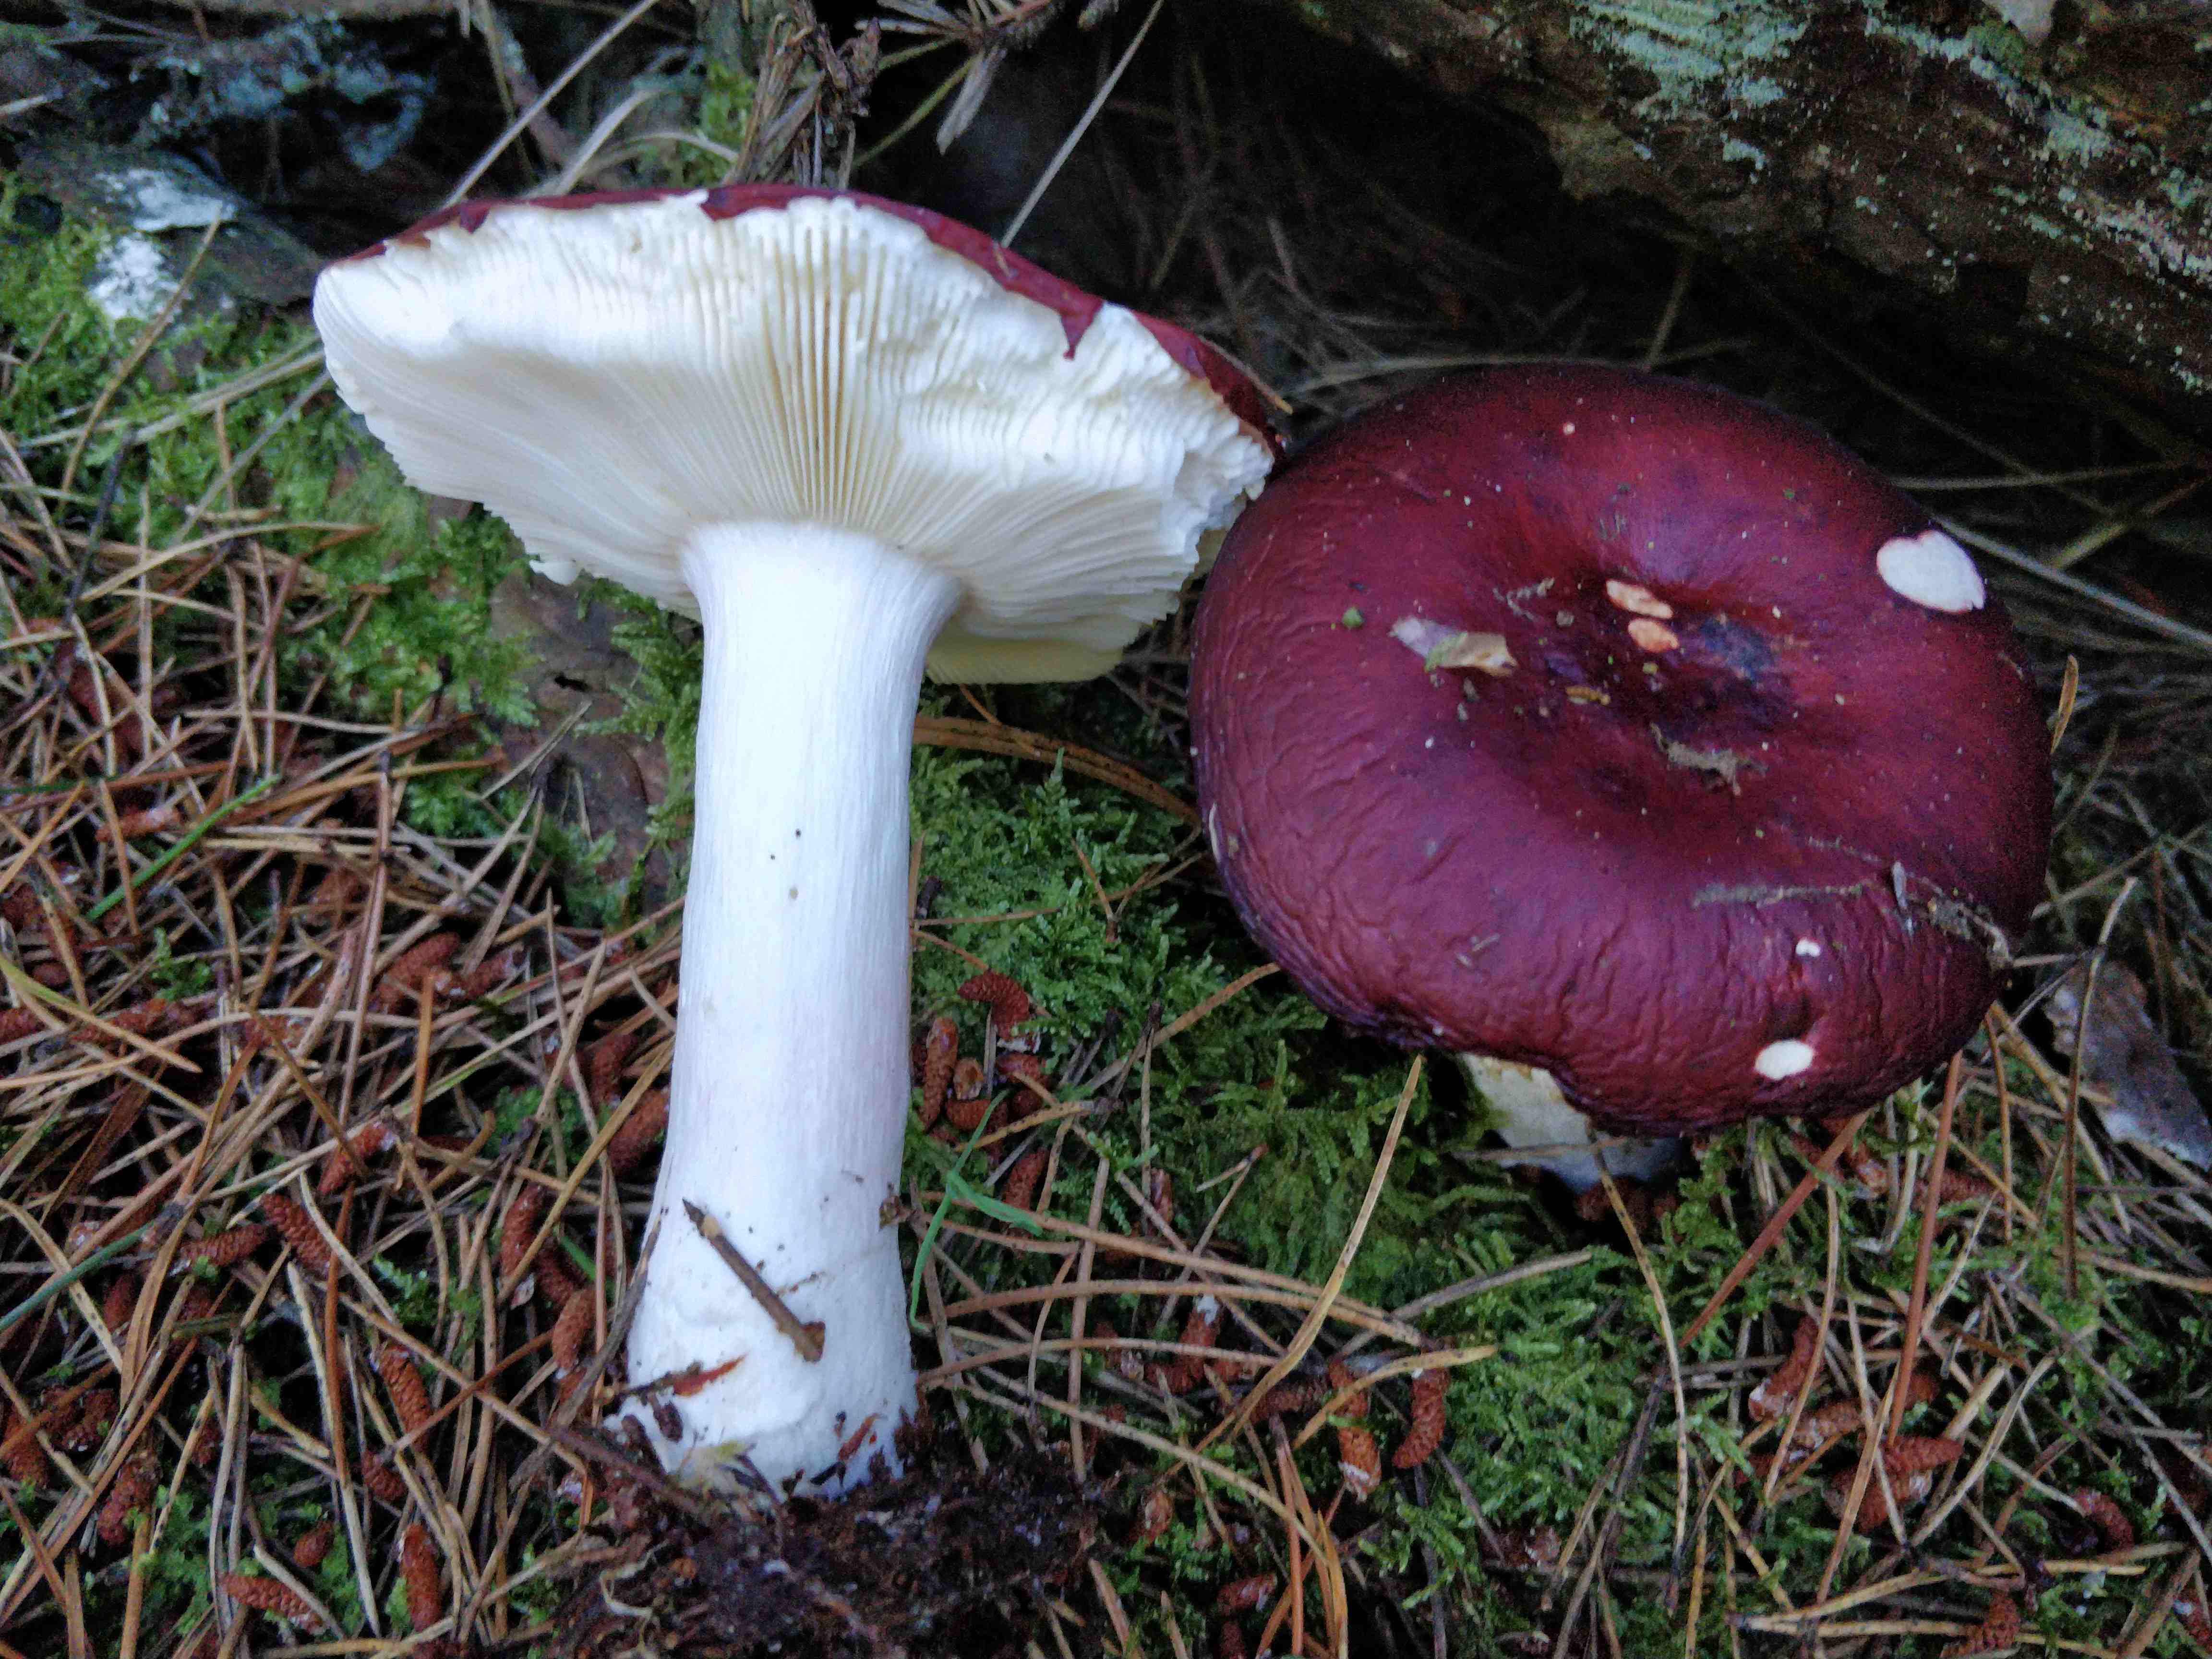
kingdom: Fungi
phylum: Basidiomycota
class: Agaricomycetes
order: Russulales
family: Russulaceae
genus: Russula
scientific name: Russula paludosa
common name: prægtig skørhat
